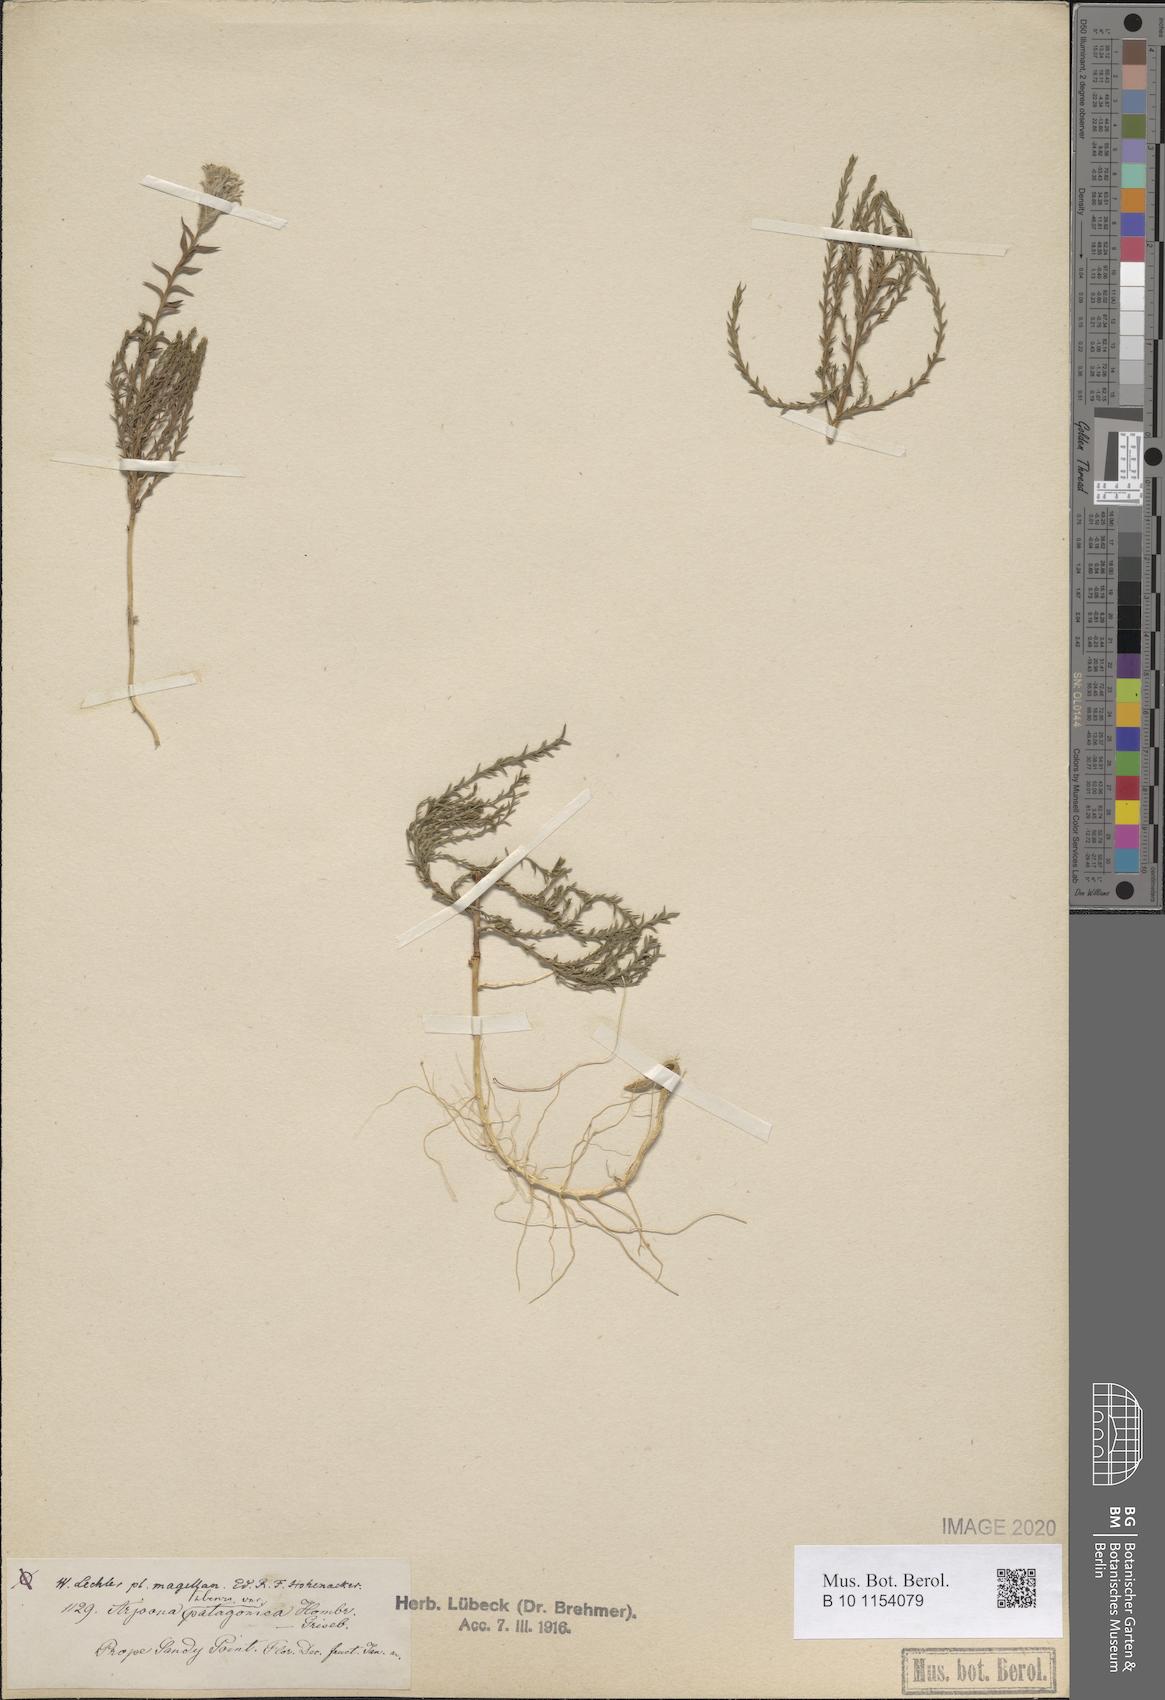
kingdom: Plantae
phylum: Tracheophyta
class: Magnoliopsida
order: Santalales
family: Schoepfiaceae
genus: Arjona
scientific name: Arjona patagonica
